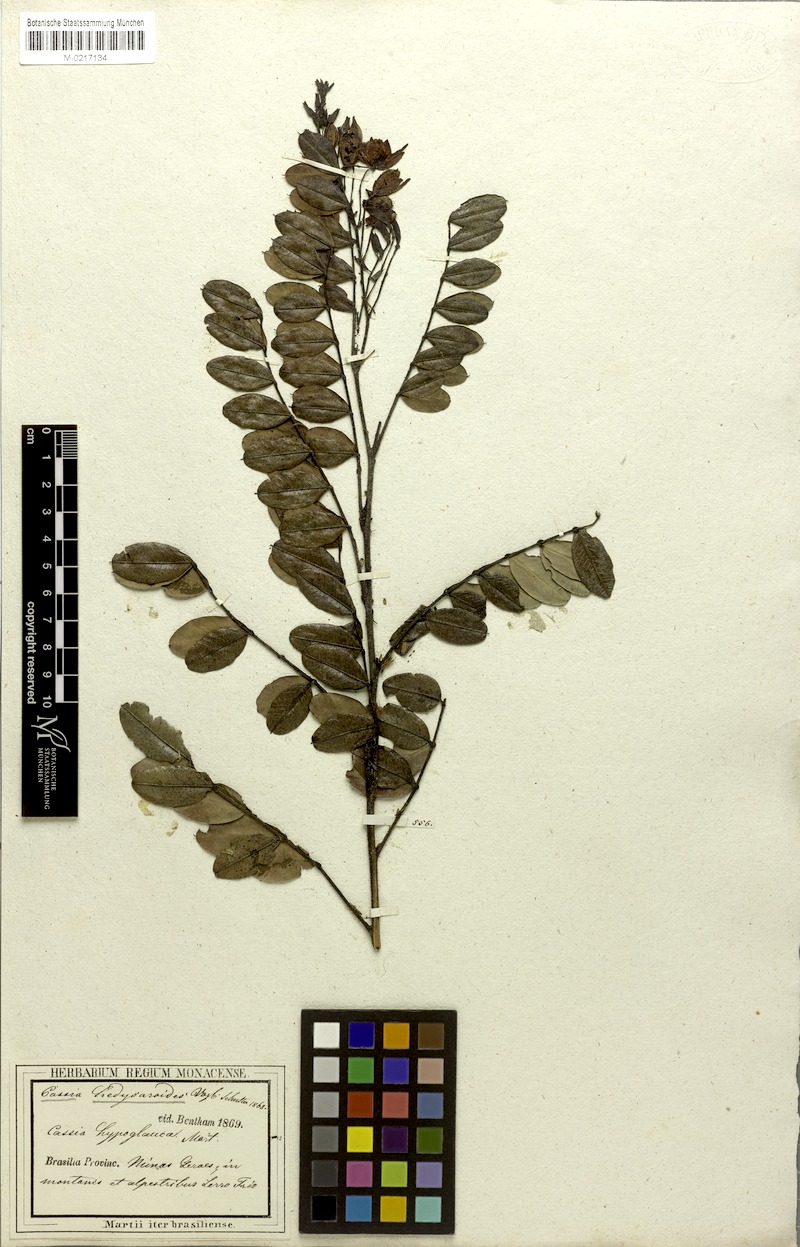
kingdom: Plantae
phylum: Tracheophyta
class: Magnoliopsida
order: Fabales
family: Fabaceae
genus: Chamaecrista
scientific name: Chamaecrista hedysaroides
